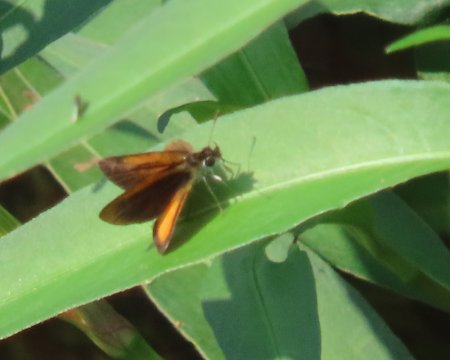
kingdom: Animalia
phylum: Arthropoda
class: Insecta
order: Lepidoptera
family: Hesperiidae
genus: Ancyloxypha
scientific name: Ancyloxypha numitor
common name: Least Skipper
